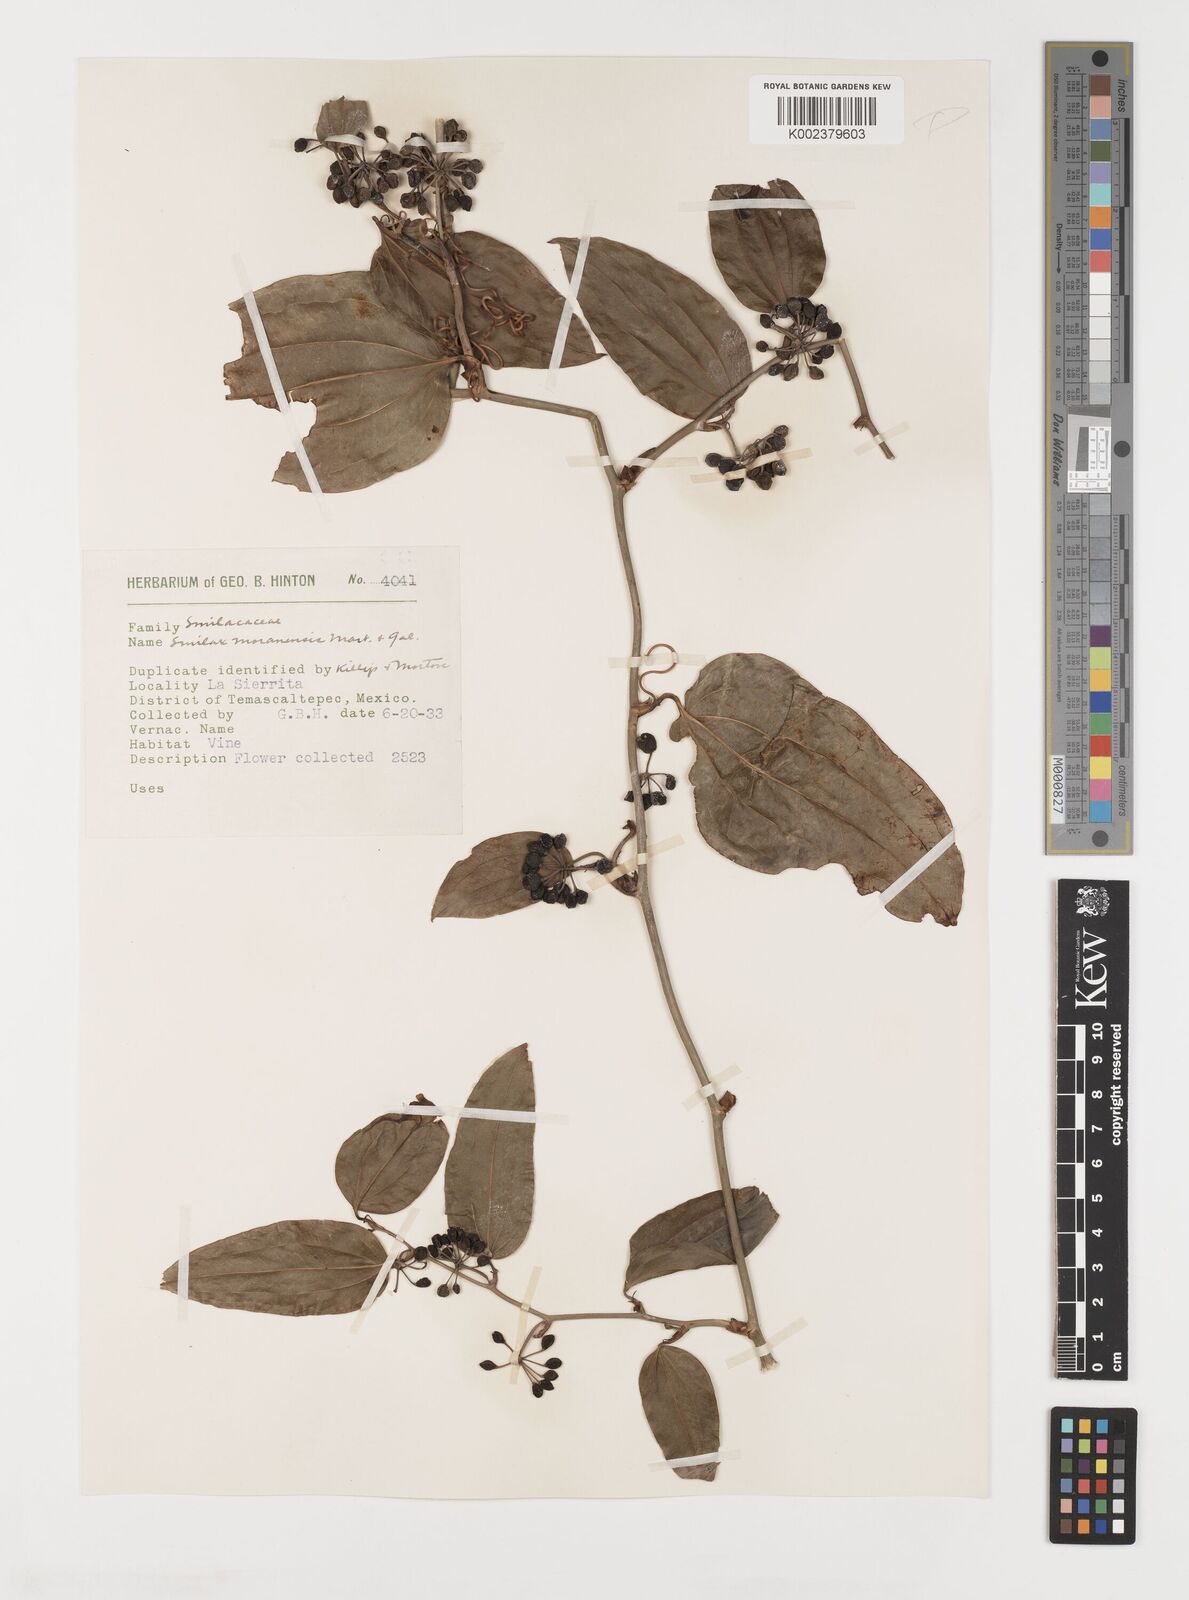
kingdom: Plantae
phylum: Tracheophyta
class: Liliopsida
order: Liliales
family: Smilacaceae
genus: Smilax
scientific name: Smilax moranensis
